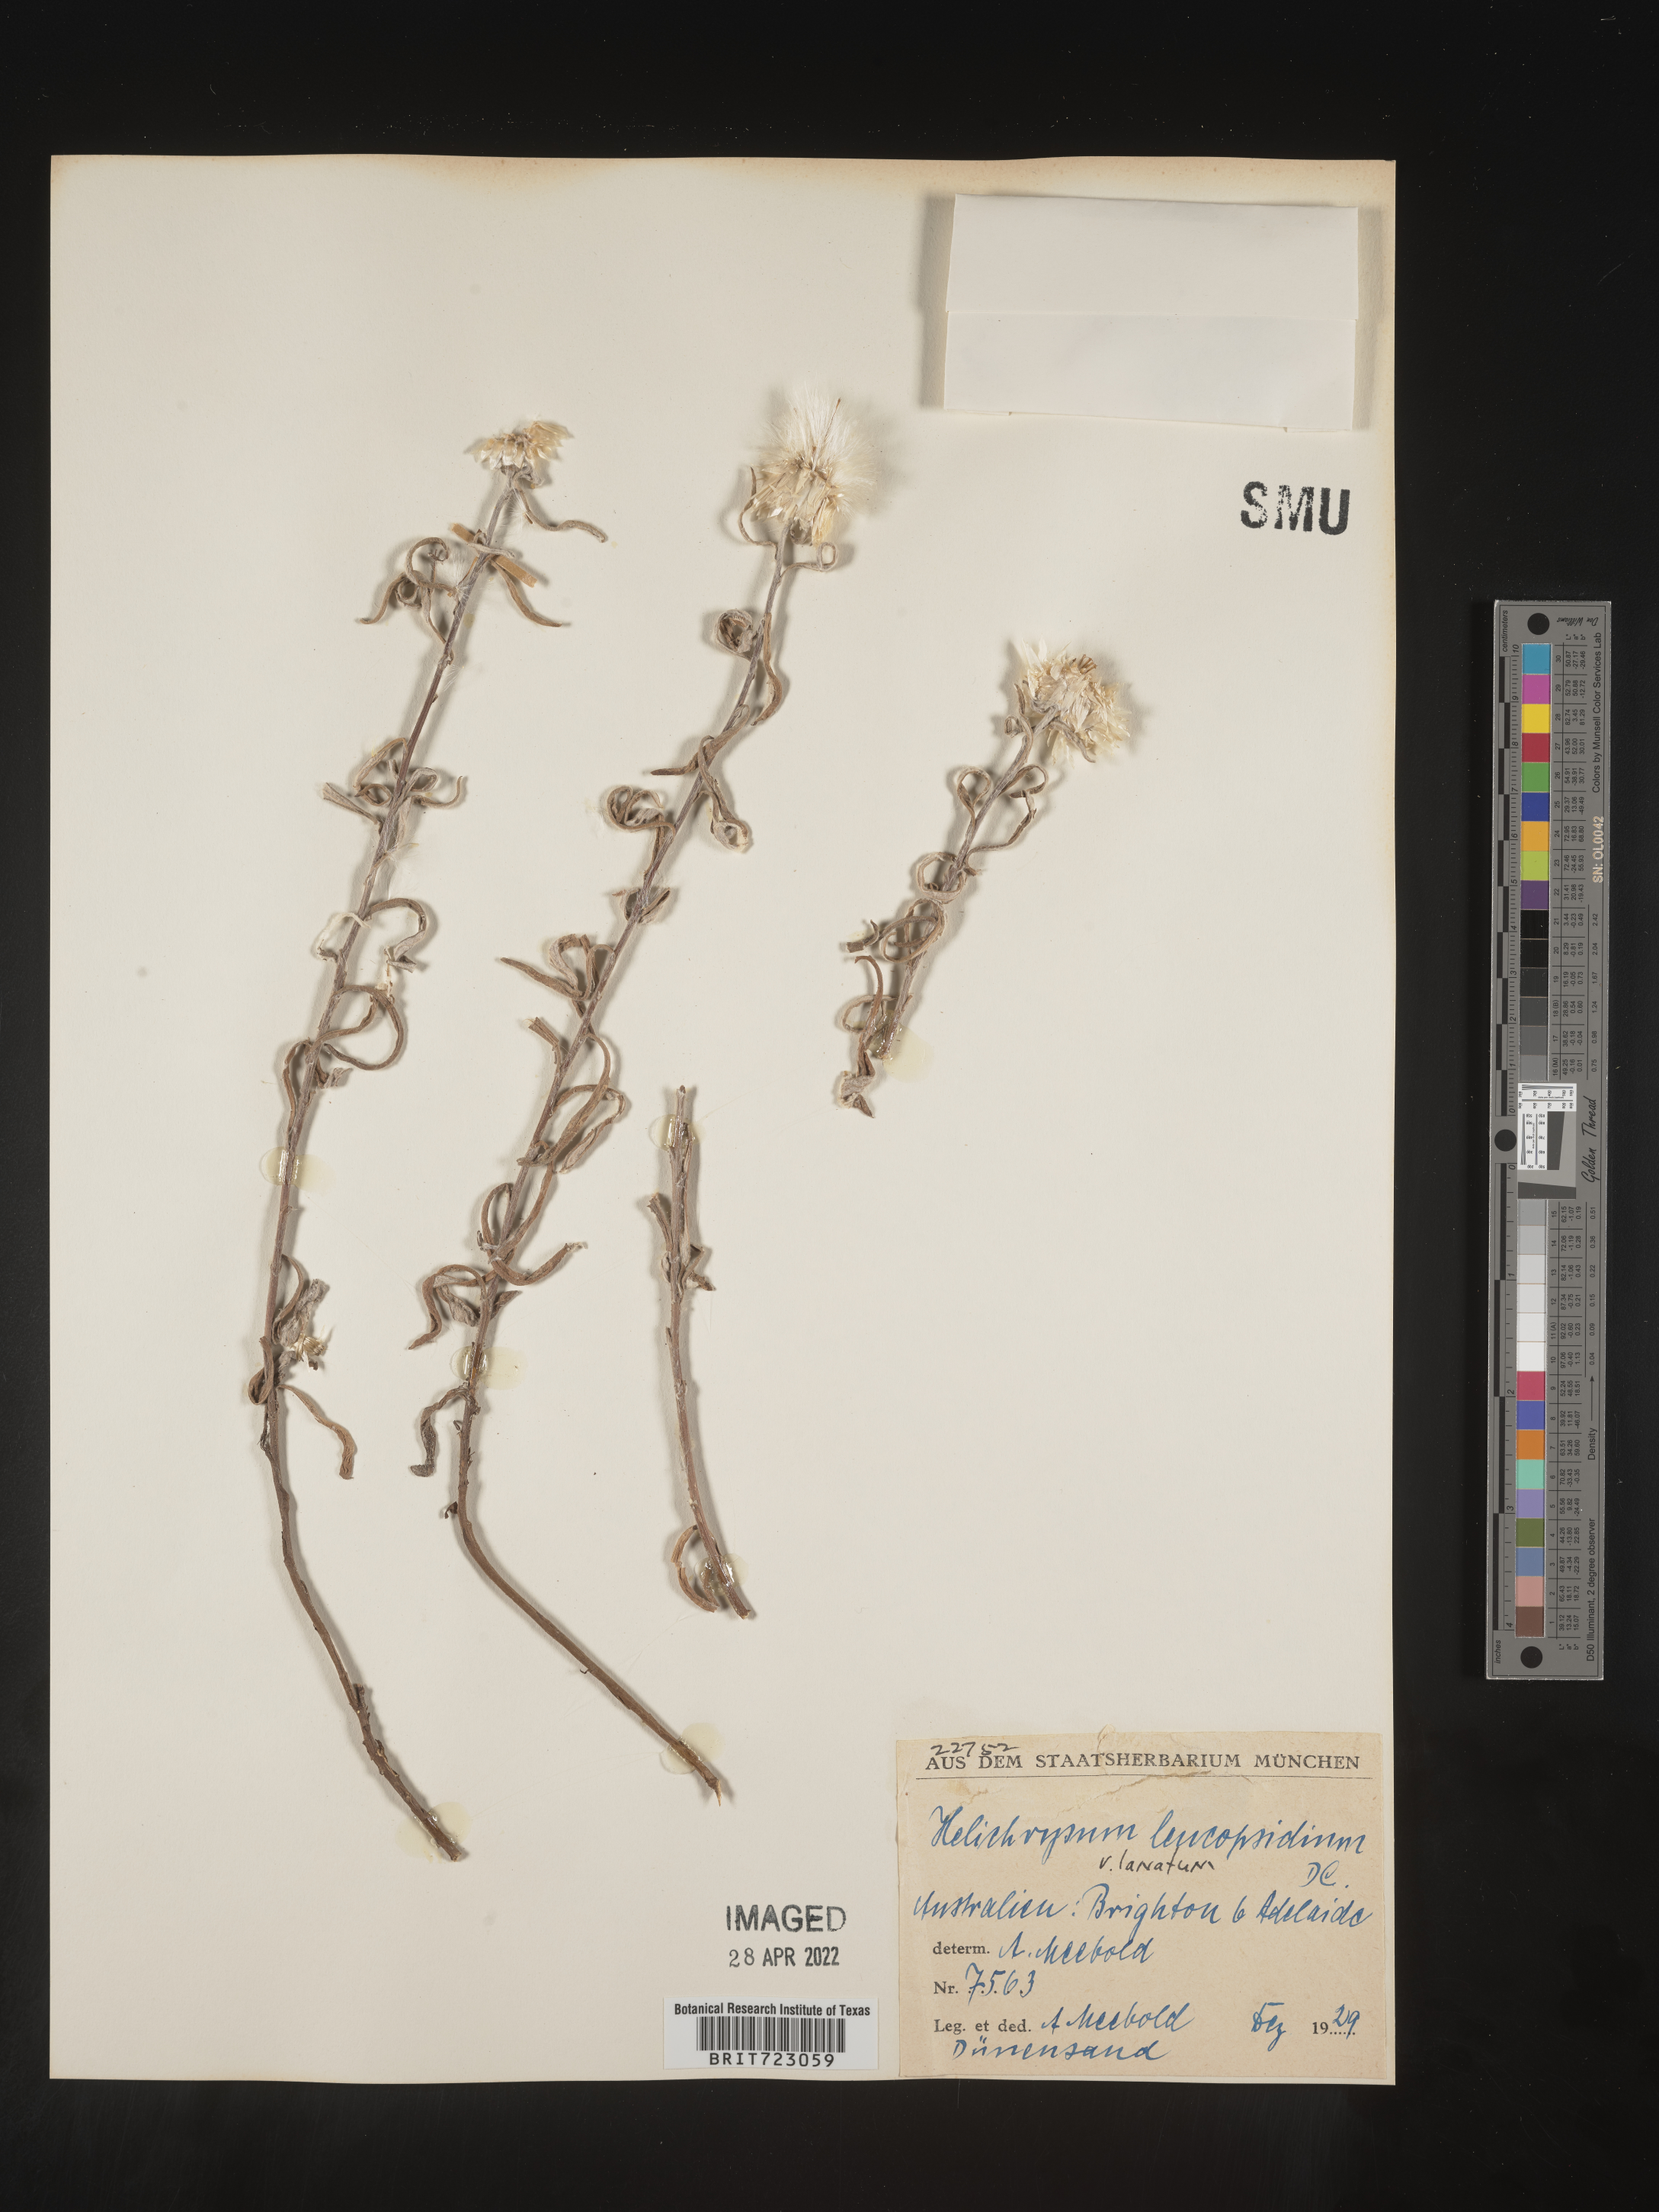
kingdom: Plantae
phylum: Tracheophyta
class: Magnoliopsida
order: Asterales
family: Asteraceae
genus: Helichrysum
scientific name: Helichrysum
